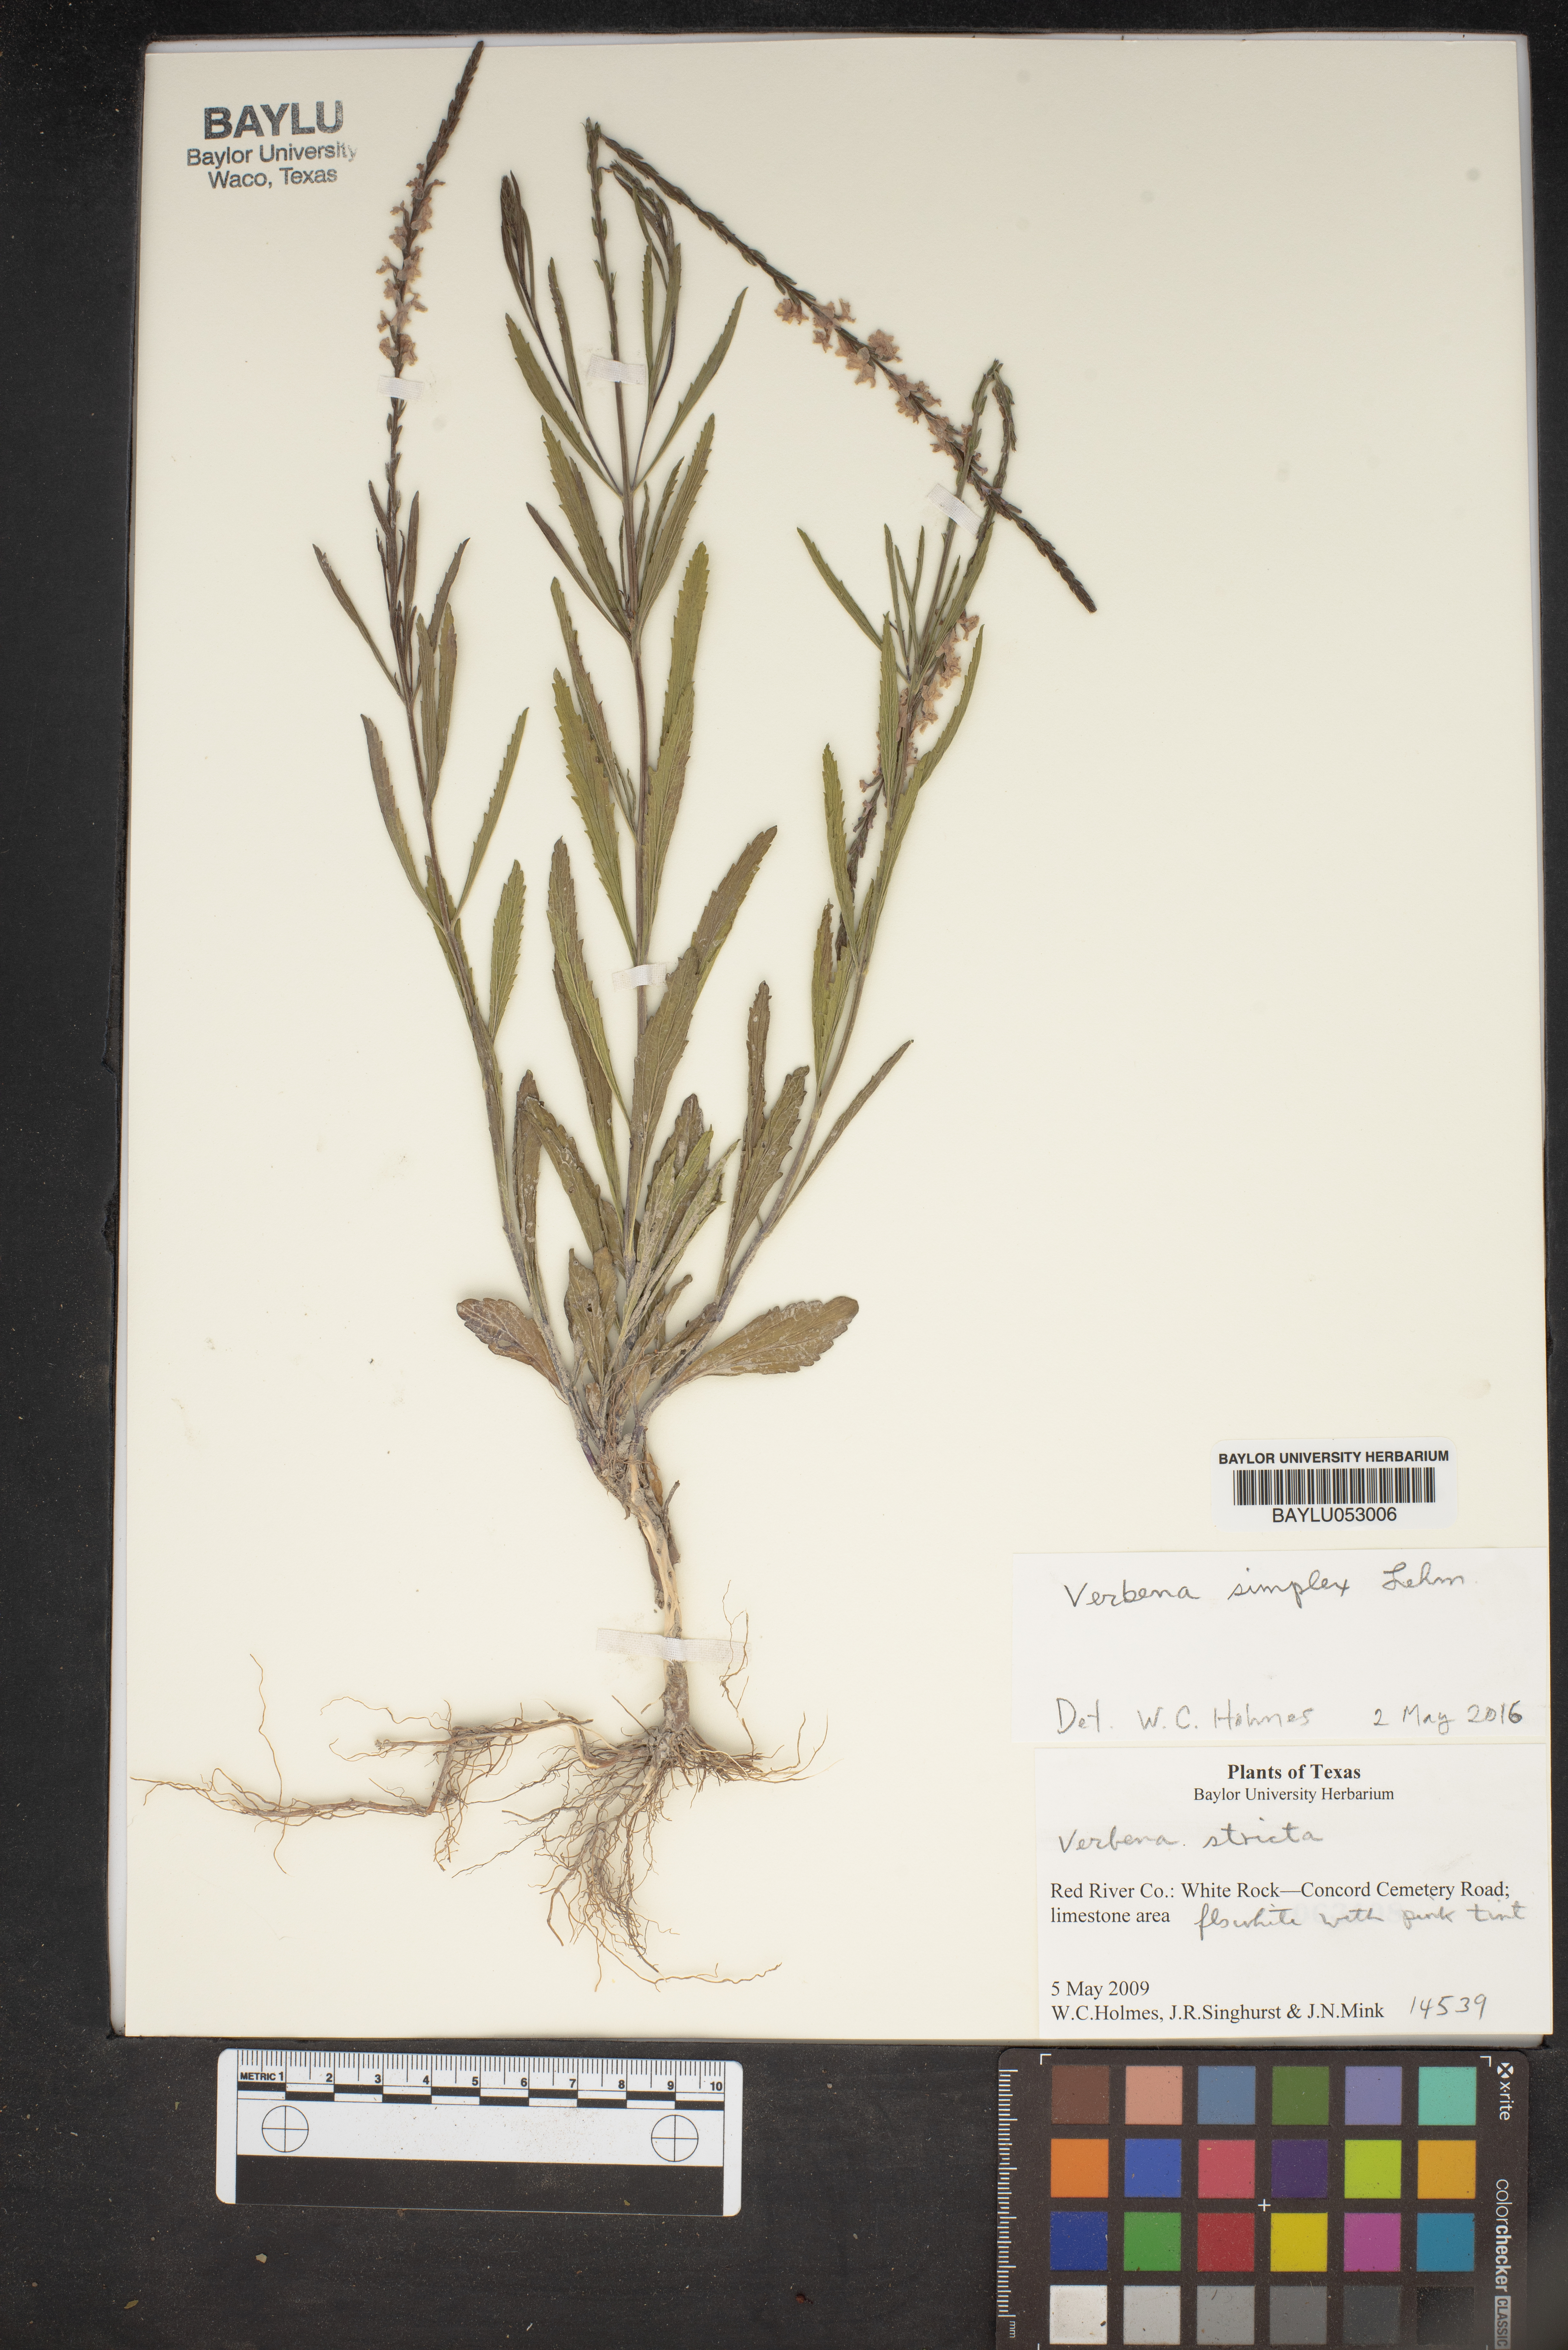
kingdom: Plantae
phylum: Tracheophyta
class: Magnoliopsida
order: Lamiales
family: Verbenaceae
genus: Verbena
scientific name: Verbena stricta
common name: Hoary vervain
